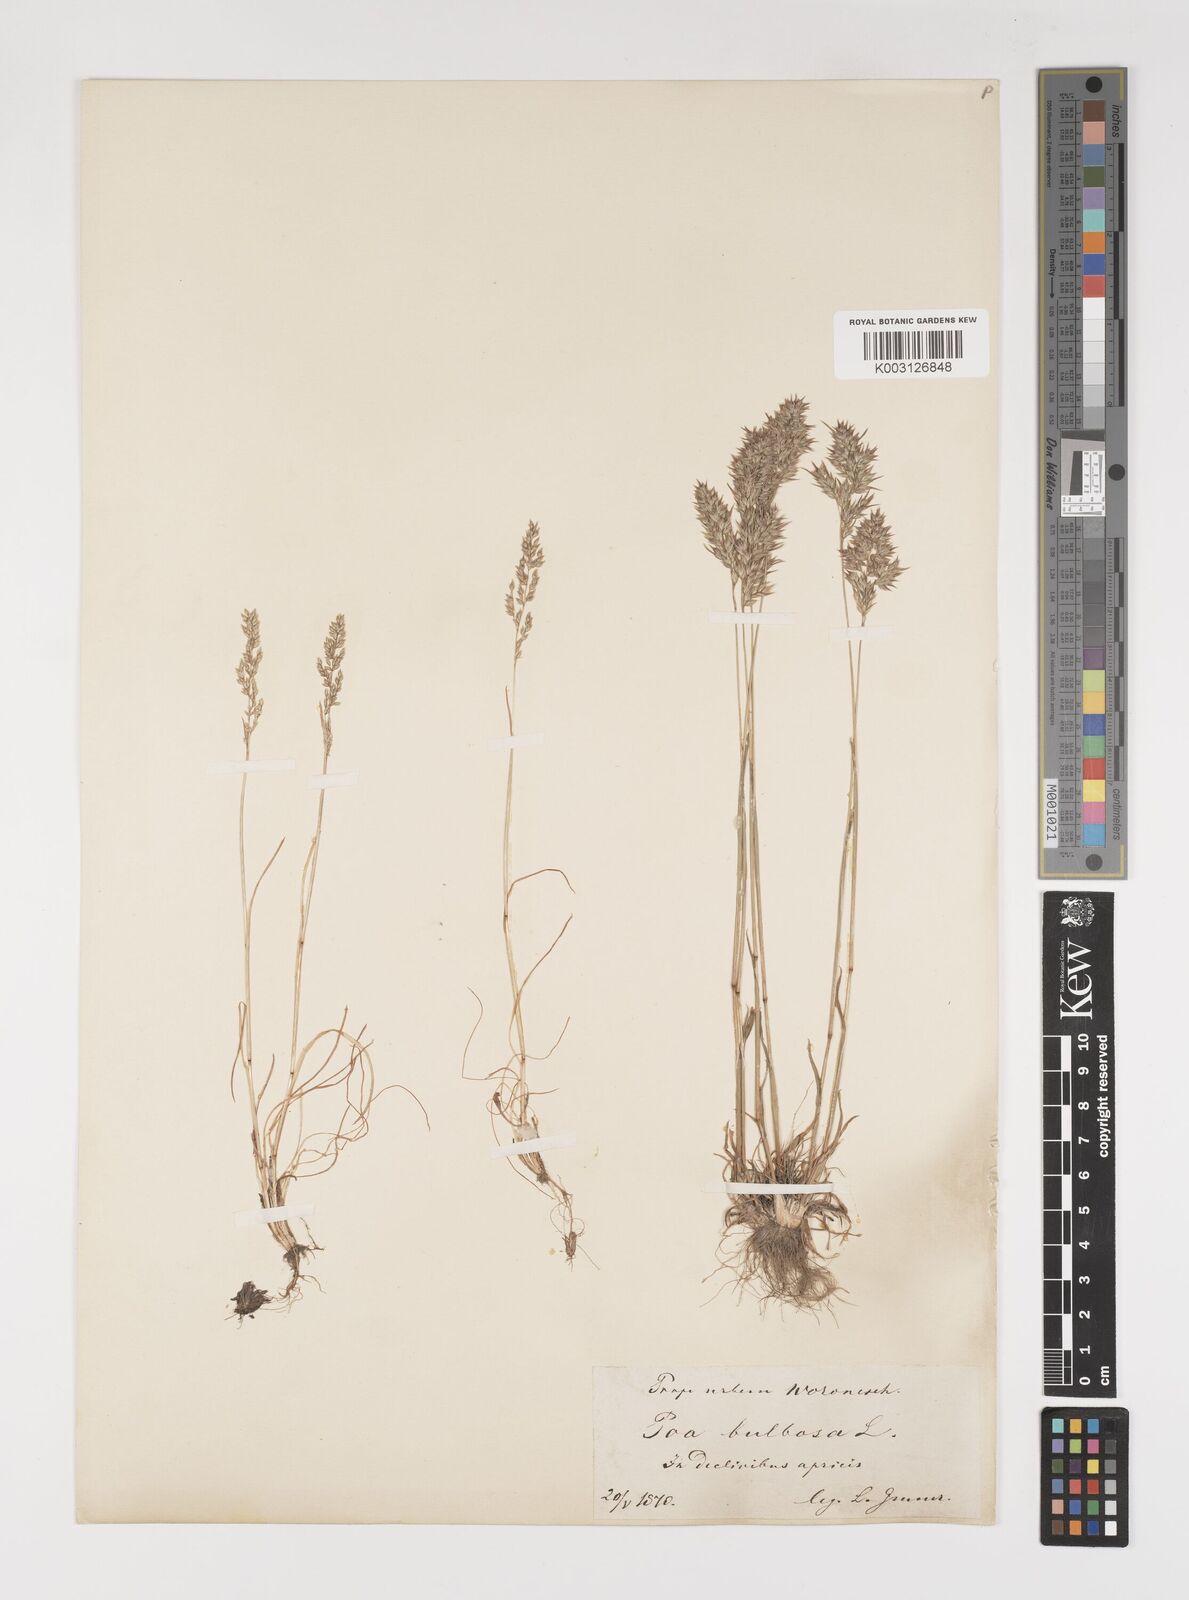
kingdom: Plantae
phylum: Tracheophyta
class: Liliopsida
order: Poales
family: Poaceae
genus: Poa
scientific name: Poa bulbosa
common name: Bulbous bluegrass
